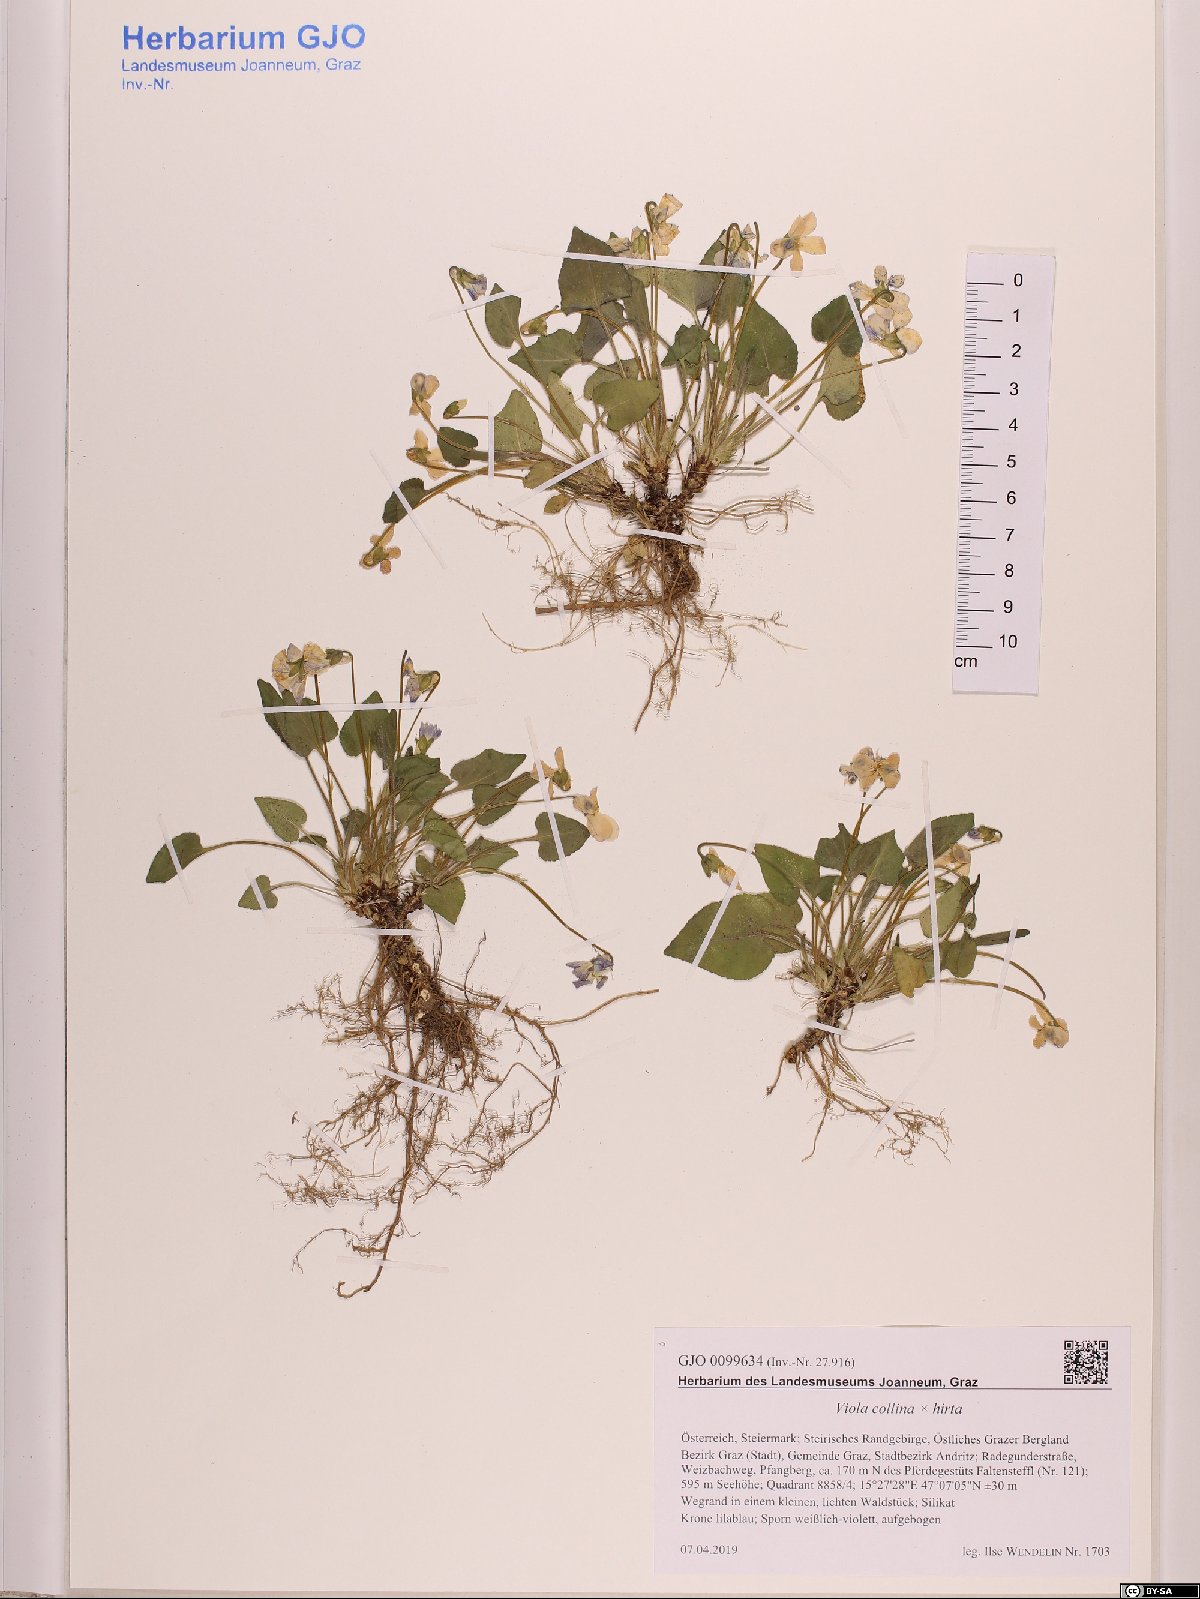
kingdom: Plantae
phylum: Tracheophyta
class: Magnoliopsida
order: Malpighiales
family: Violaceae
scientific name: Violaceae
